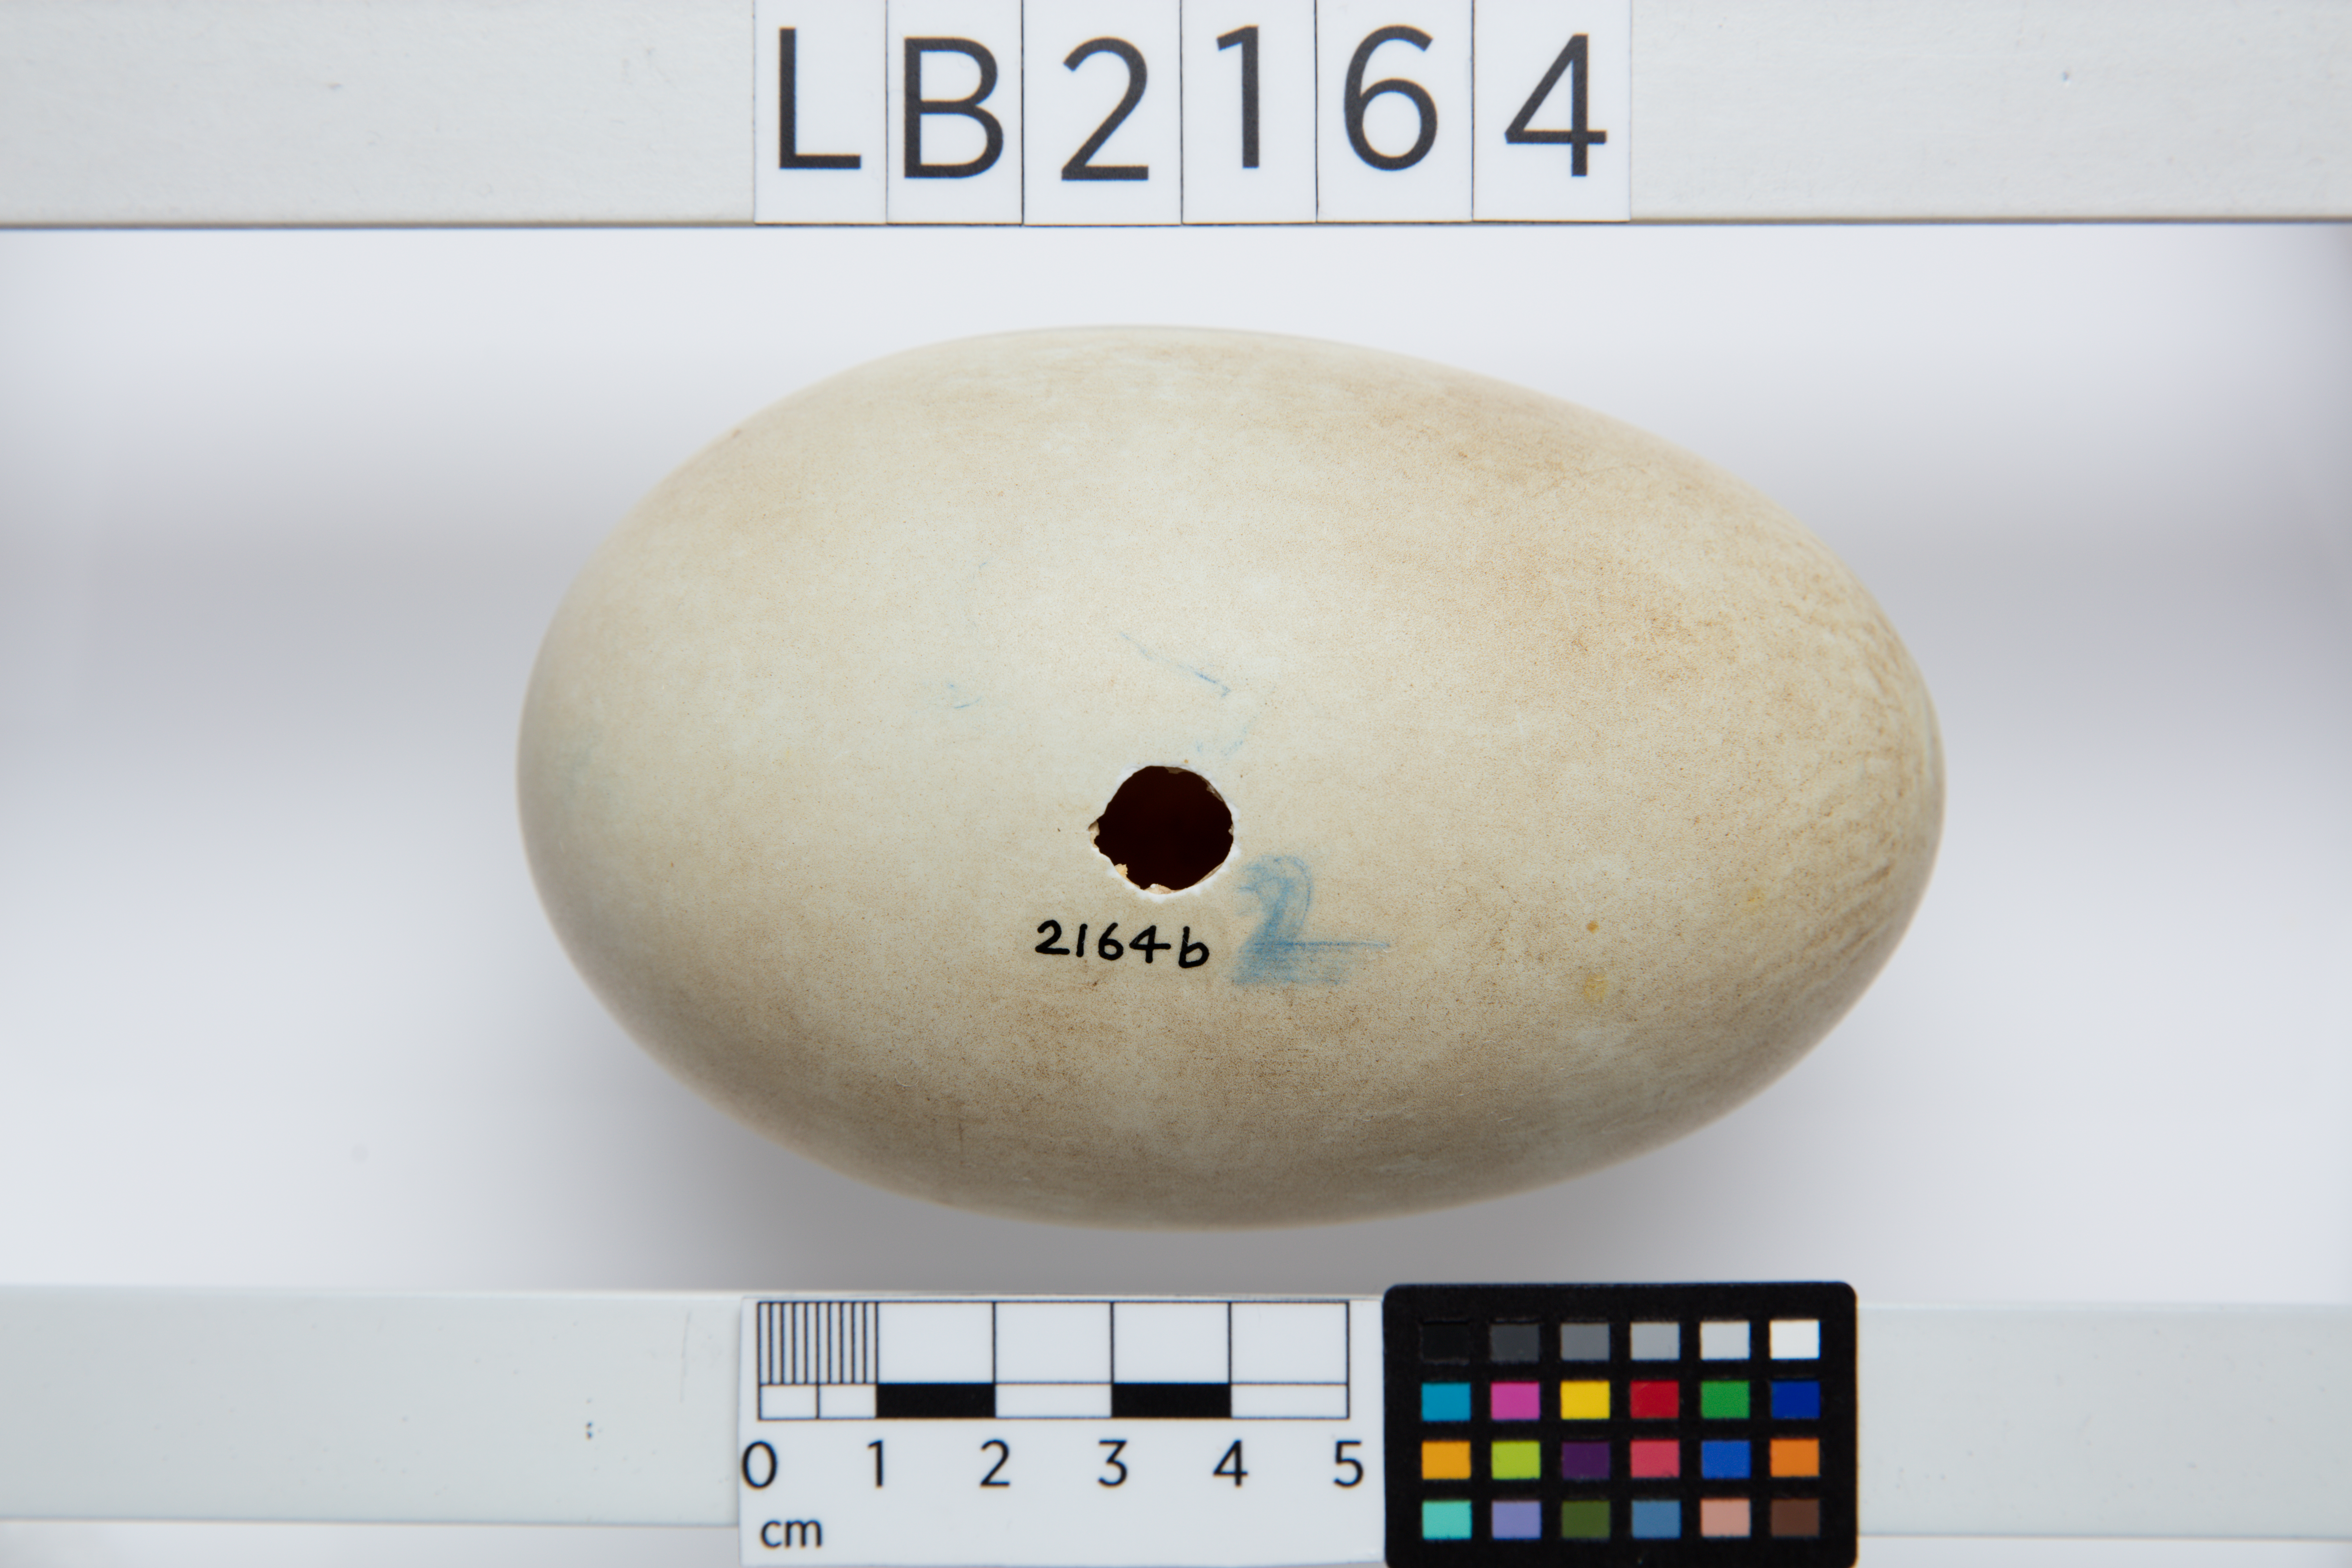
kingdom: Animalia
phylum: Chordata
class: Aves
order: Apterygiformes
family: Apterygidae
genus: Apteryx
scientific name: Apteryx
